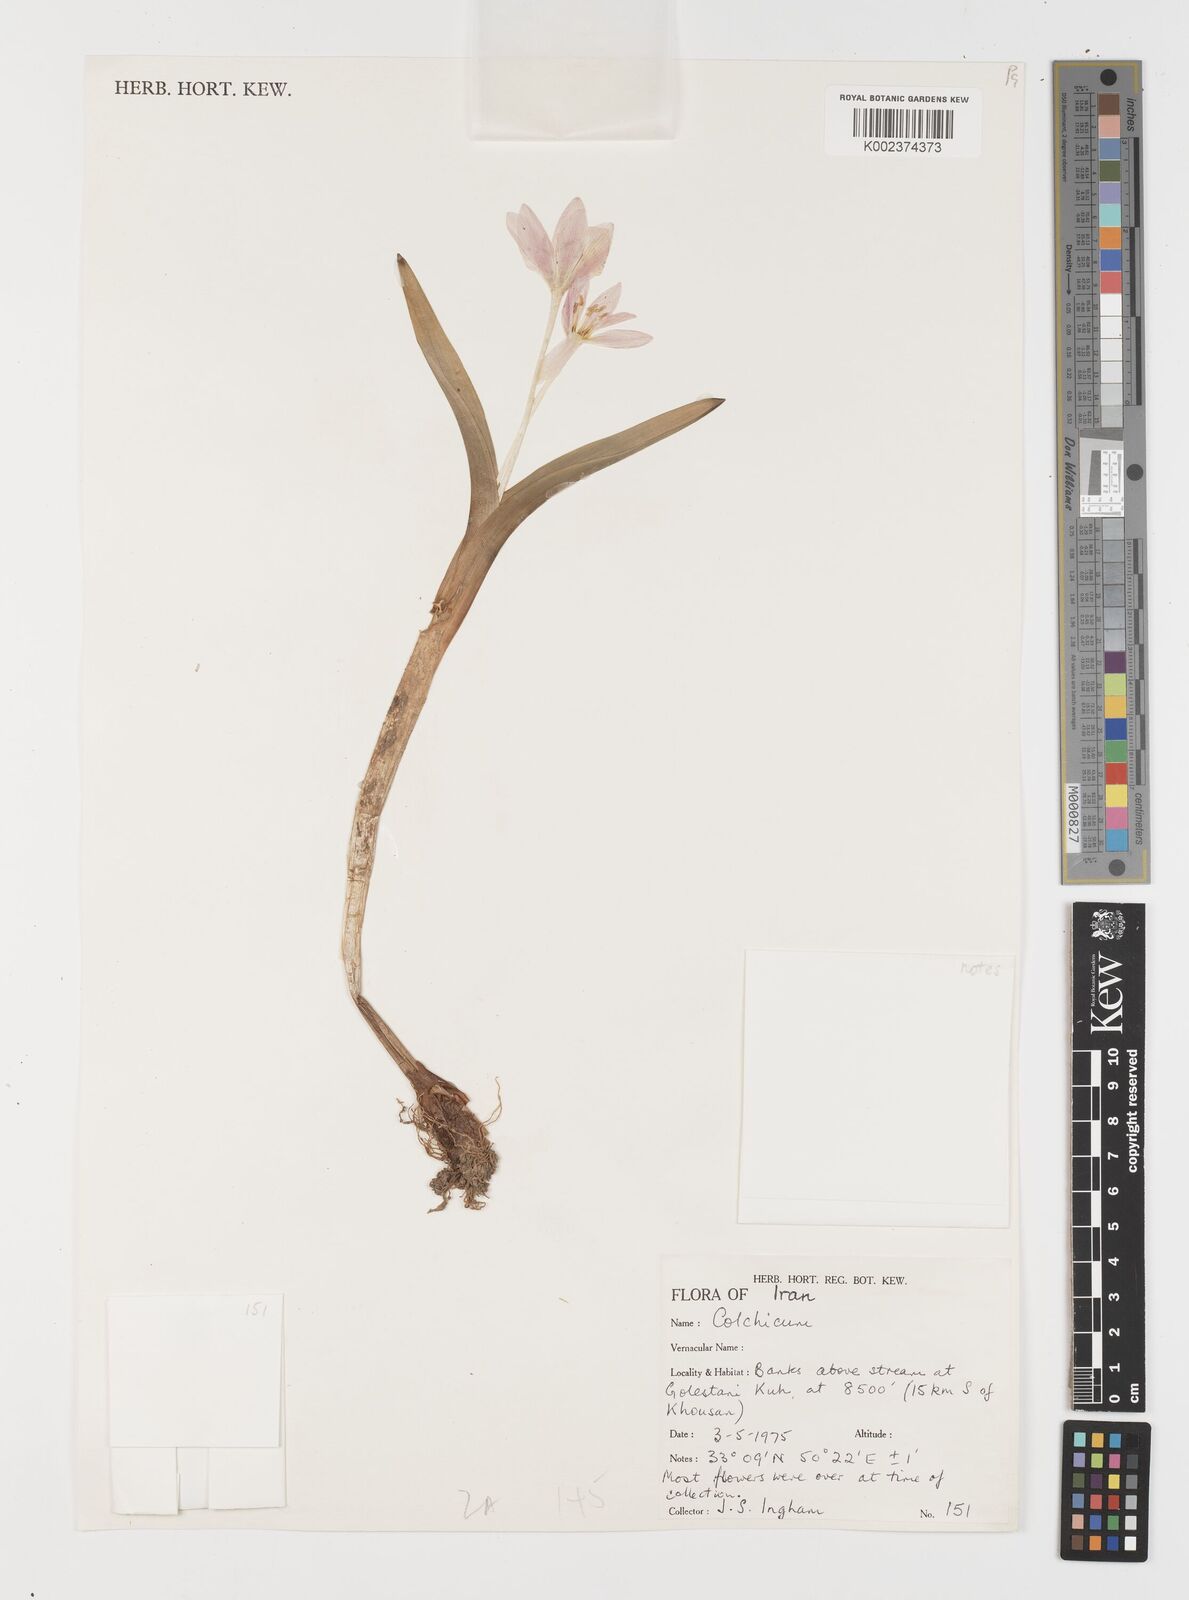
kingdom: Plantae
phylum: Tracheophyta
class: Liliopsida
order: Liliales
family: Colchicaceae
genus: Colchicum
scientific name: Colchicum
